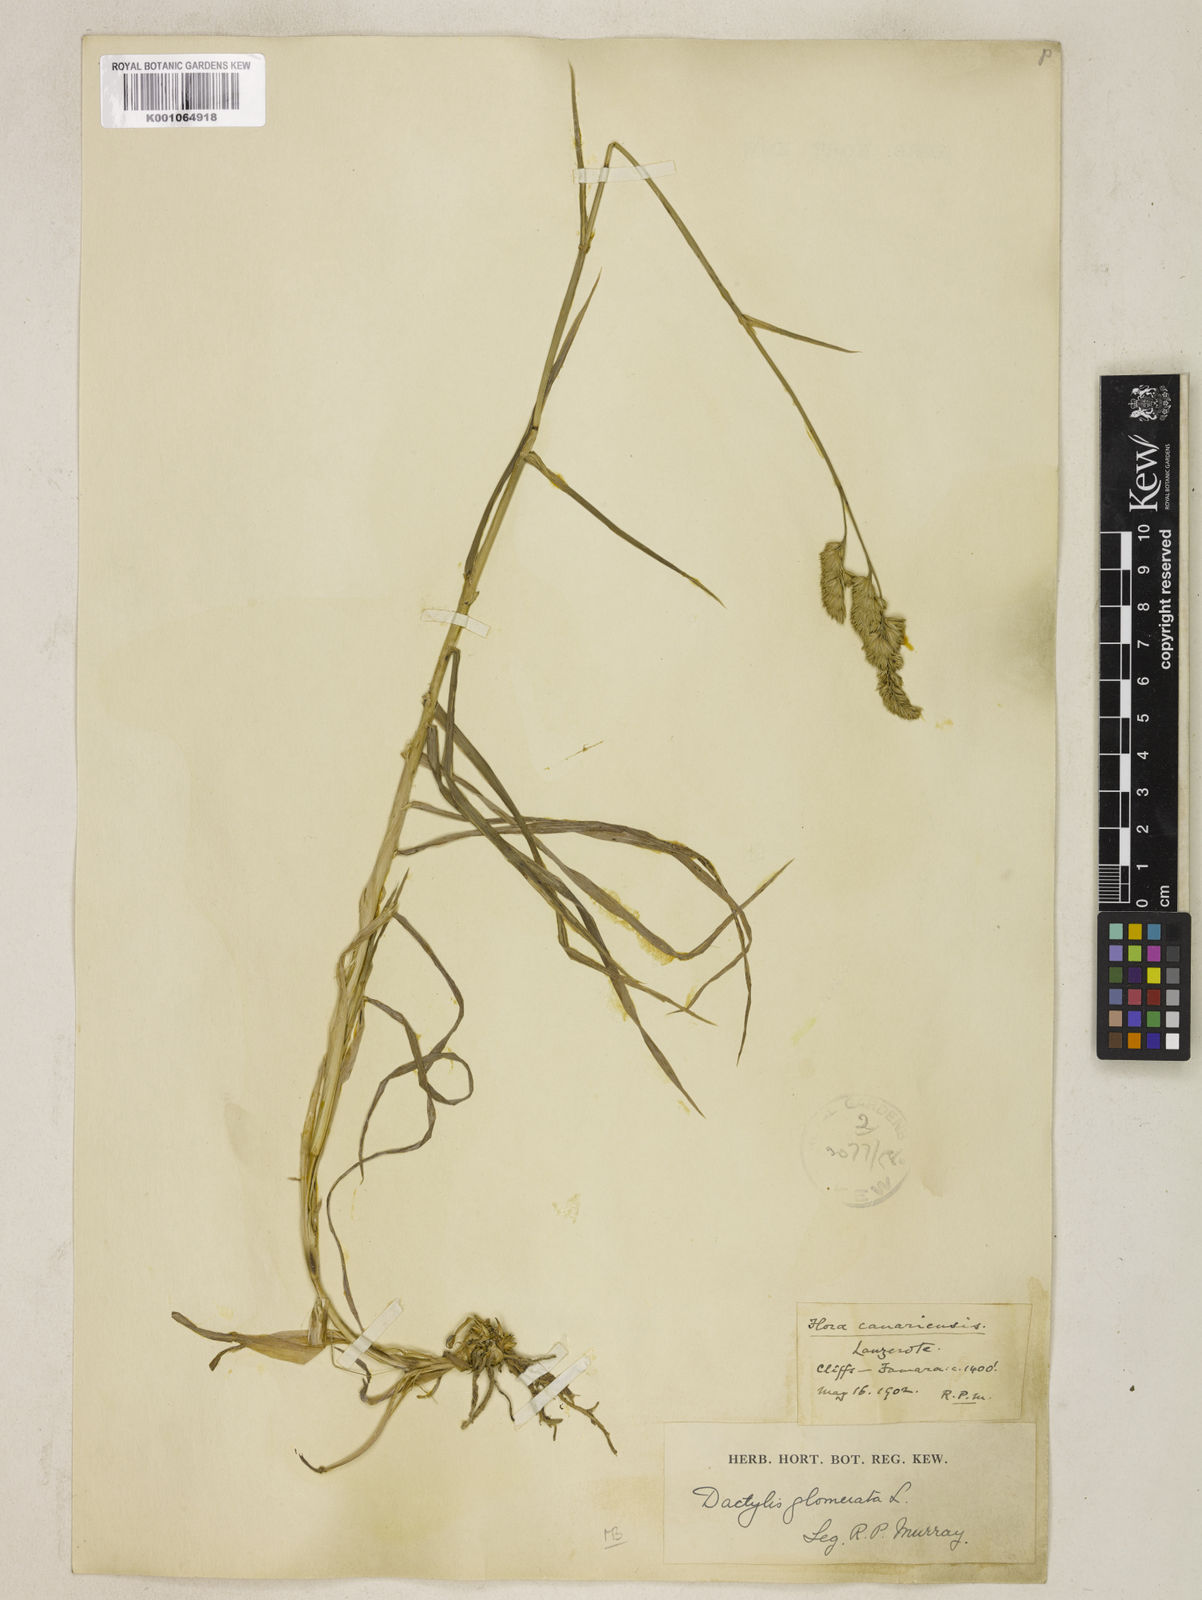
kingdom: Plantae
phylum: Tracheophyta
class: Liliopsida
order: Poales
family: Poaceae
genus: Dactylis
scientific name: Dactylis glomerata
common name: Orchardgrass
